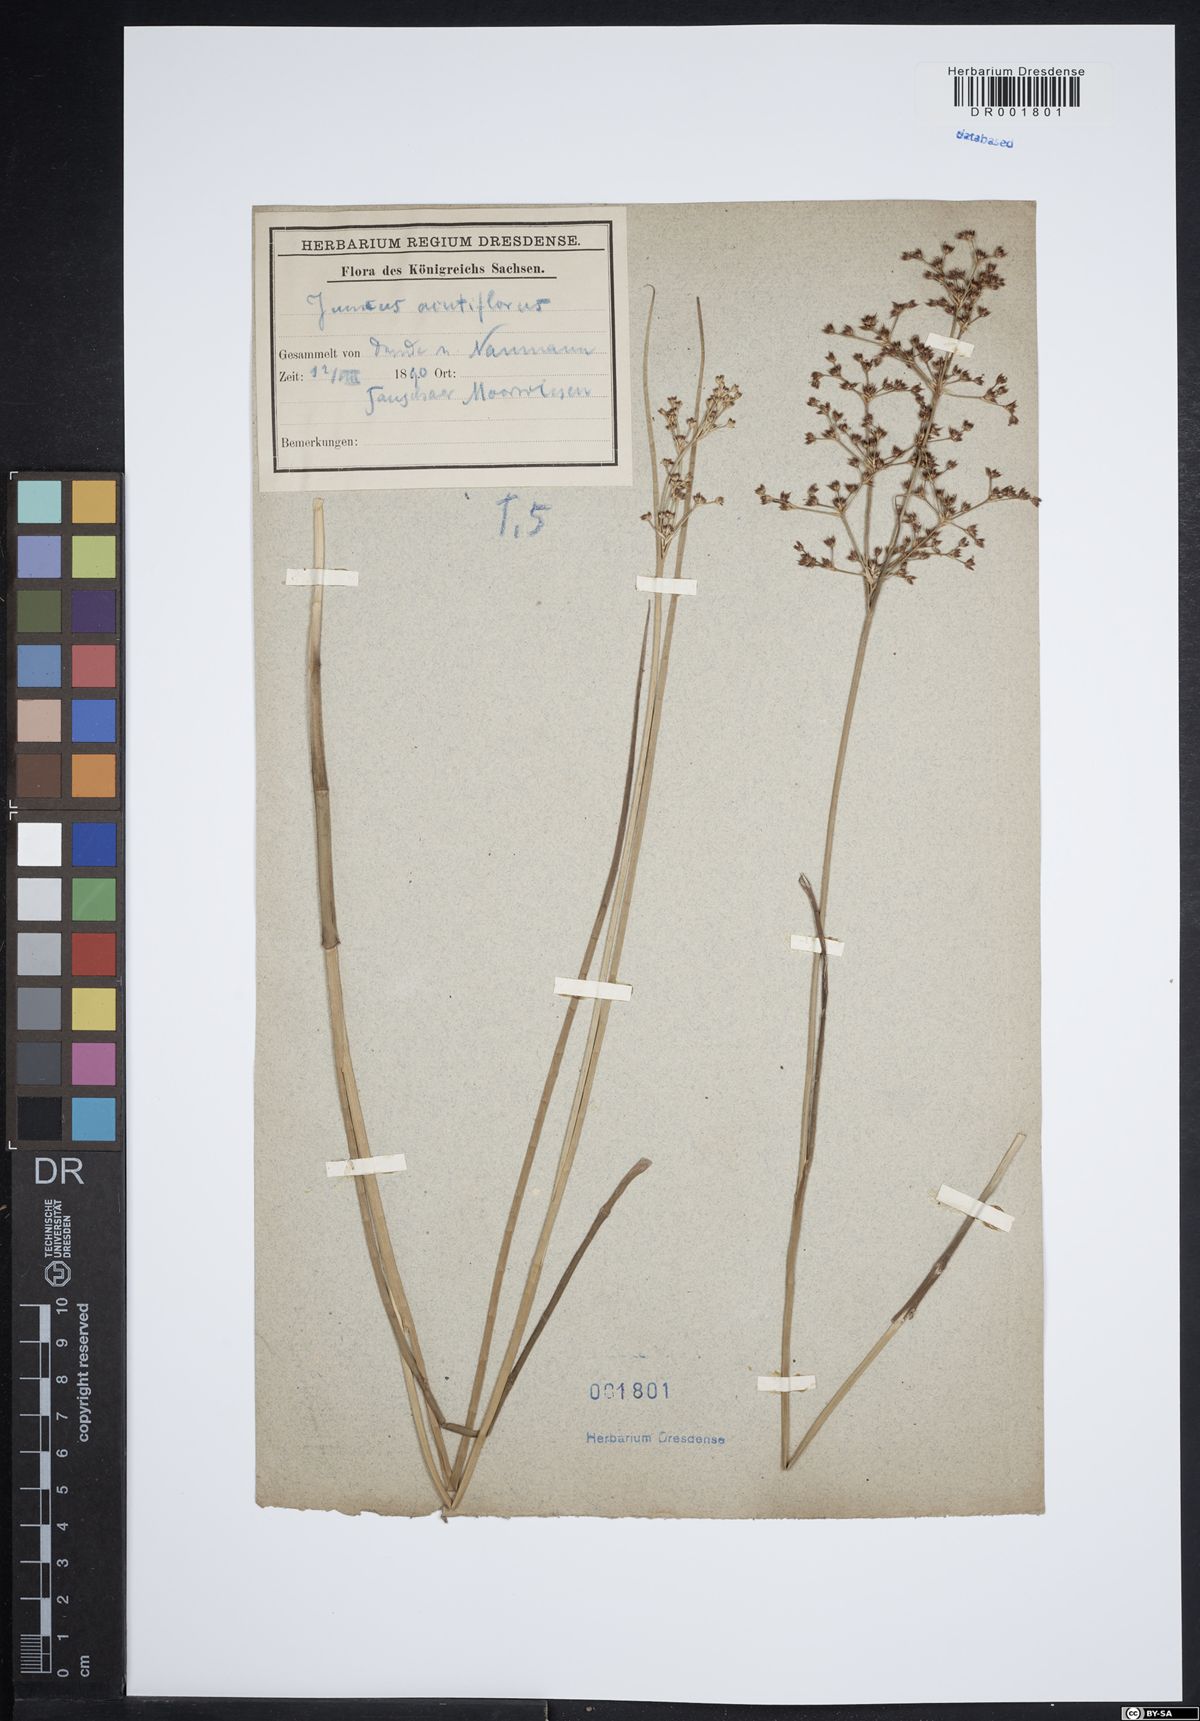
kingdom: Plantae
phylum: Tracheophyta
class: Liliopsida
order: Poales
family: Juncaceae
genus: Juncus
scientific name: Juncus acutiflorus
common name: Sharp-flowered rush
